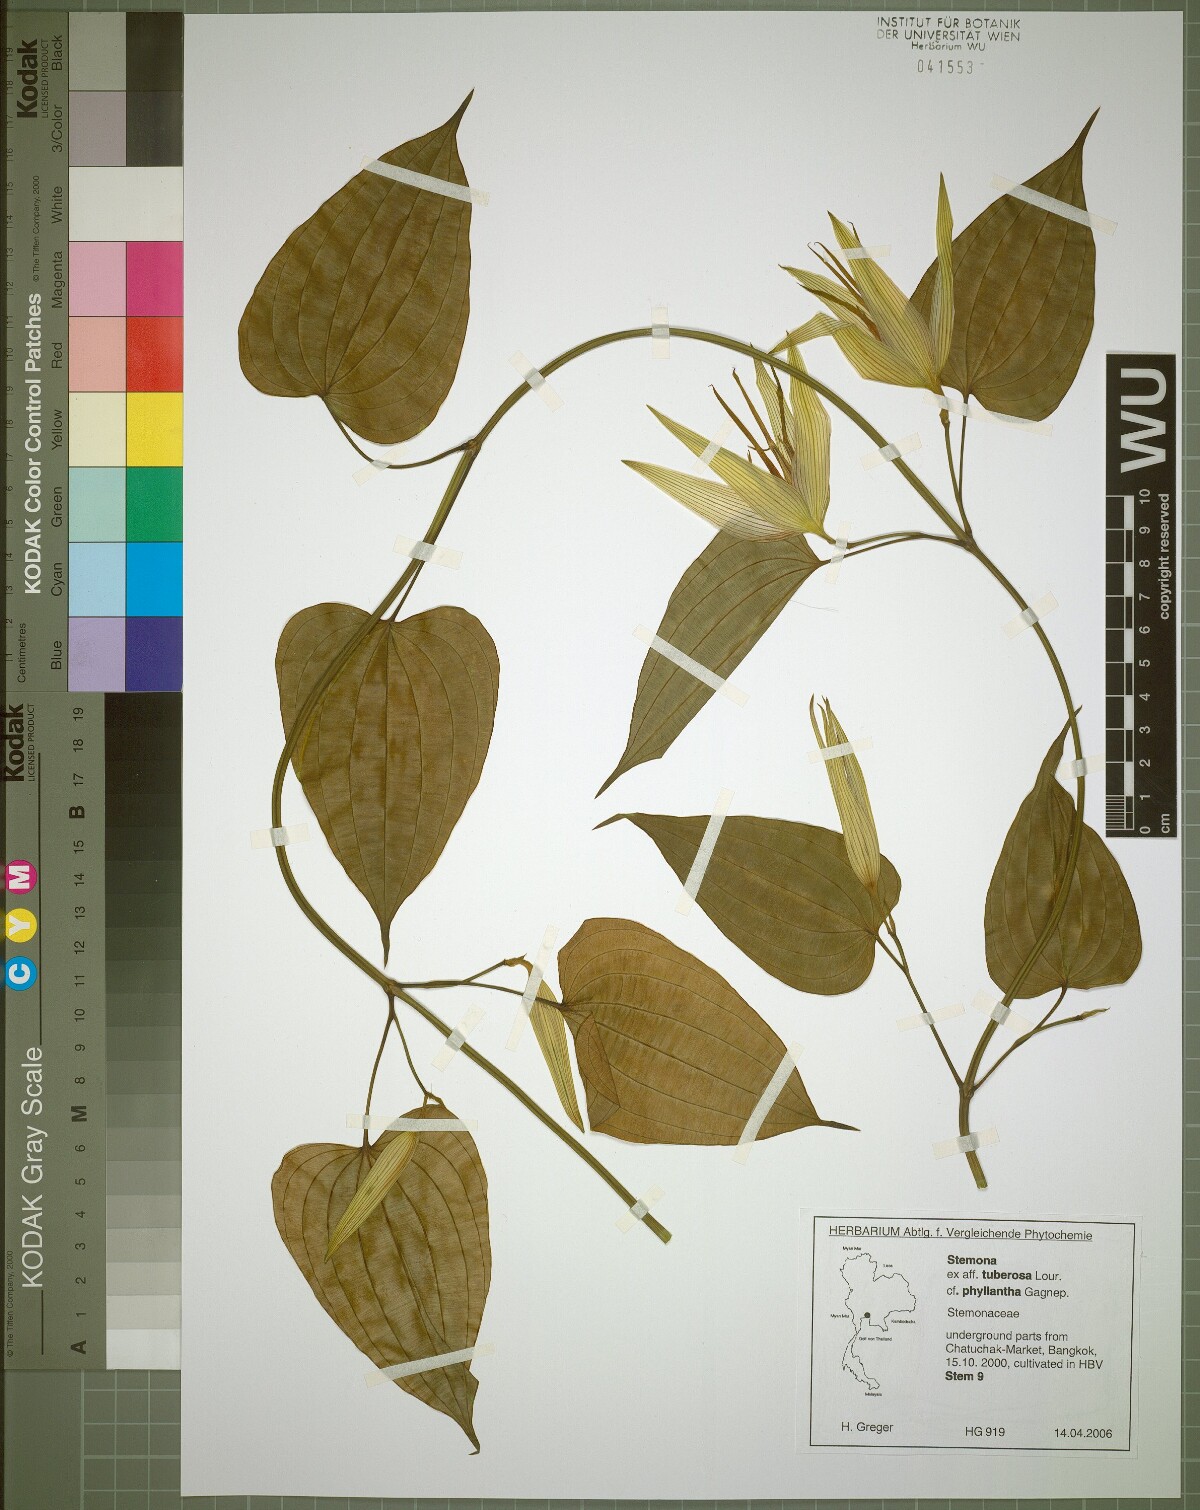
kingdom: Plantae
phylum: Tracheophyta
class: Liliopsida
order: Pandanales
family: Stemonaceae
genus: Stemona
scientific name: Stemona phyllantha
